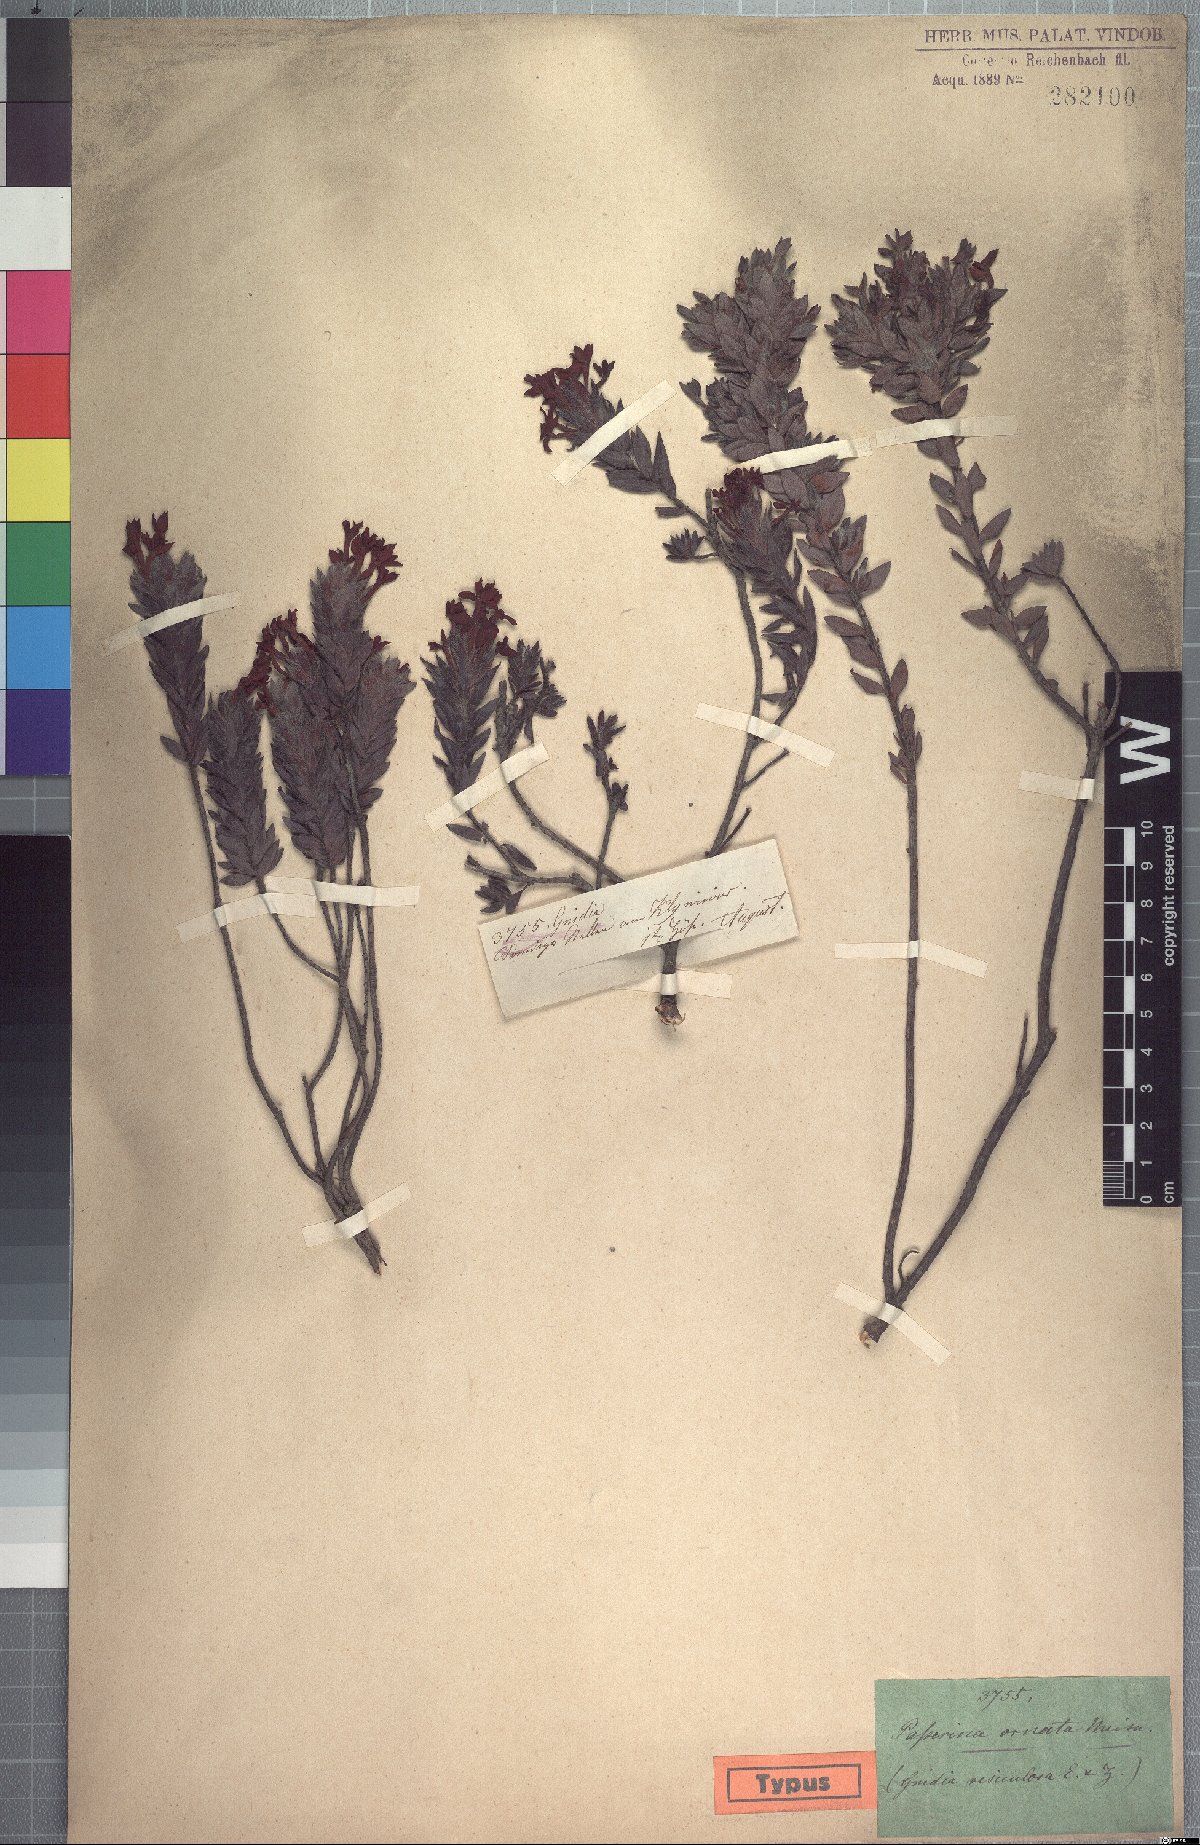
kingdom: Plantae
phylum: Tracheophyta
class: Magnoliopsida
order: Malvales
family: Thymelaeaceae
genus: Gnidia
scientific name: Gnidia ornata
